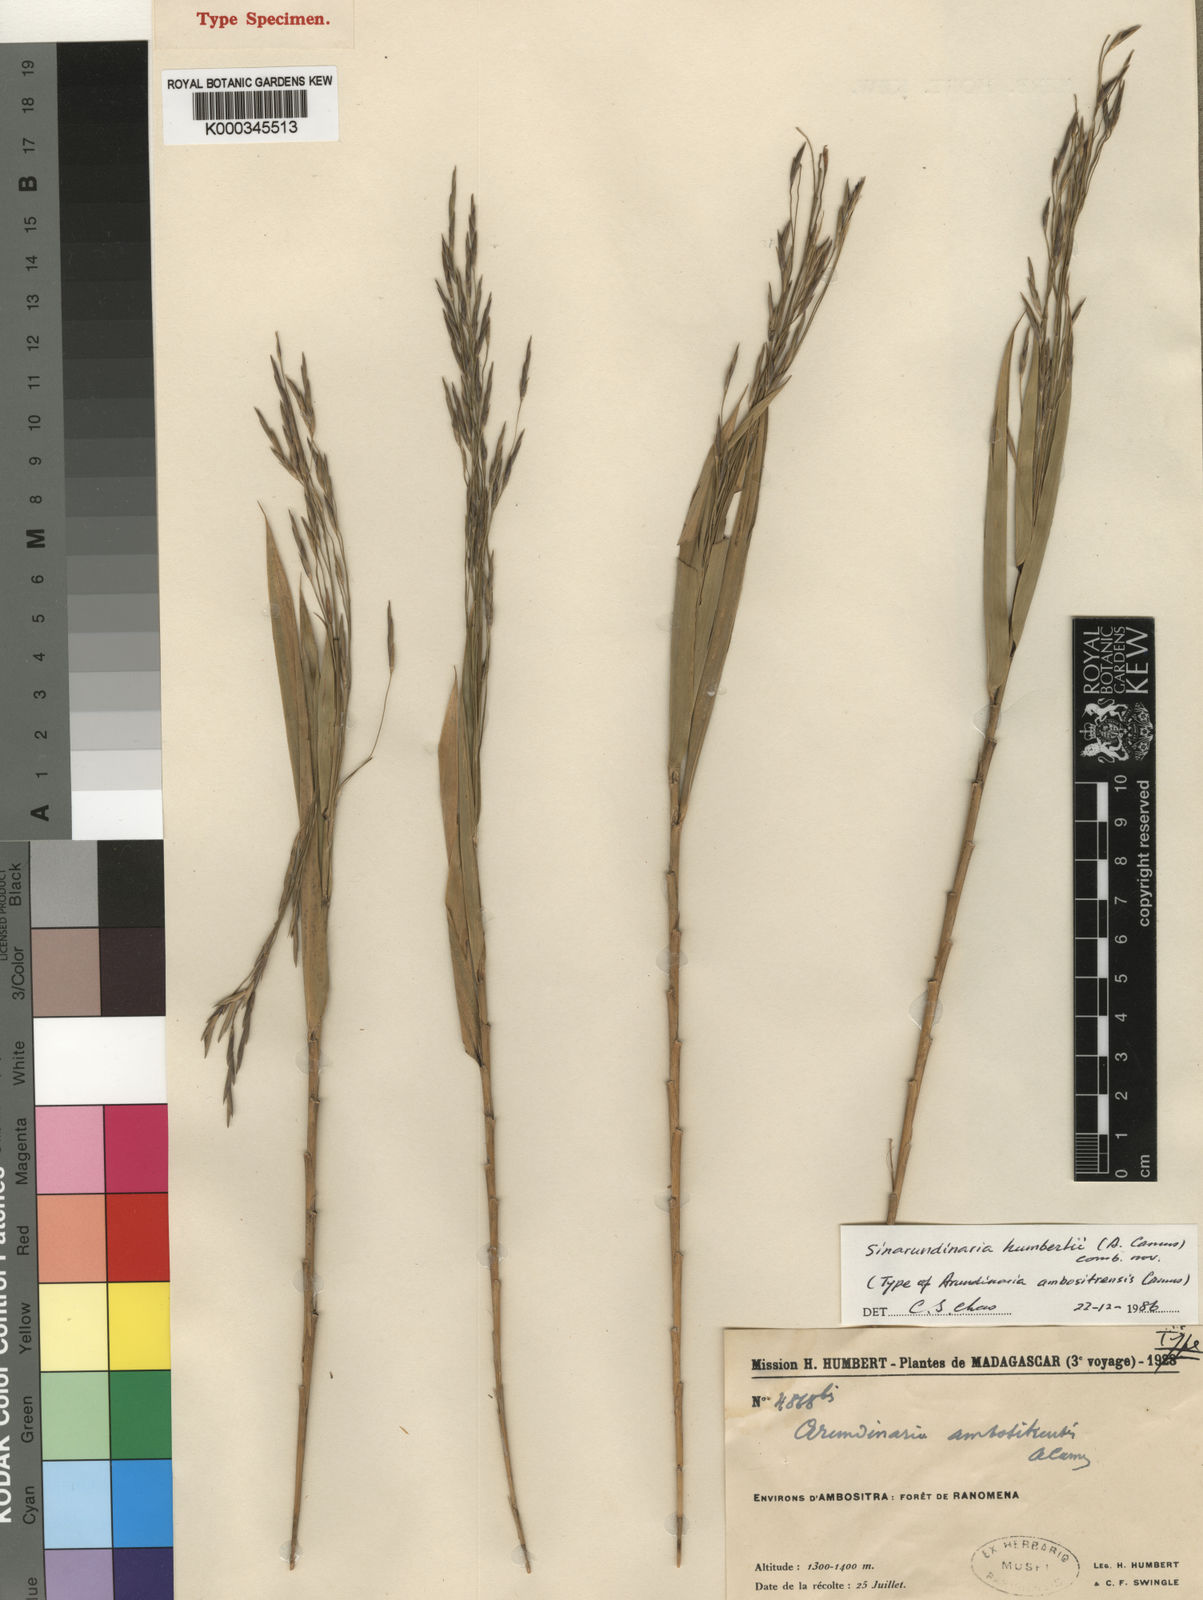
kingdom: Plantae
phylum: Tracheophyta
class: Liliopsida
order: Poales
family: Poaceae
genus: Oldeania
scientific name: Oldeania humbertii
